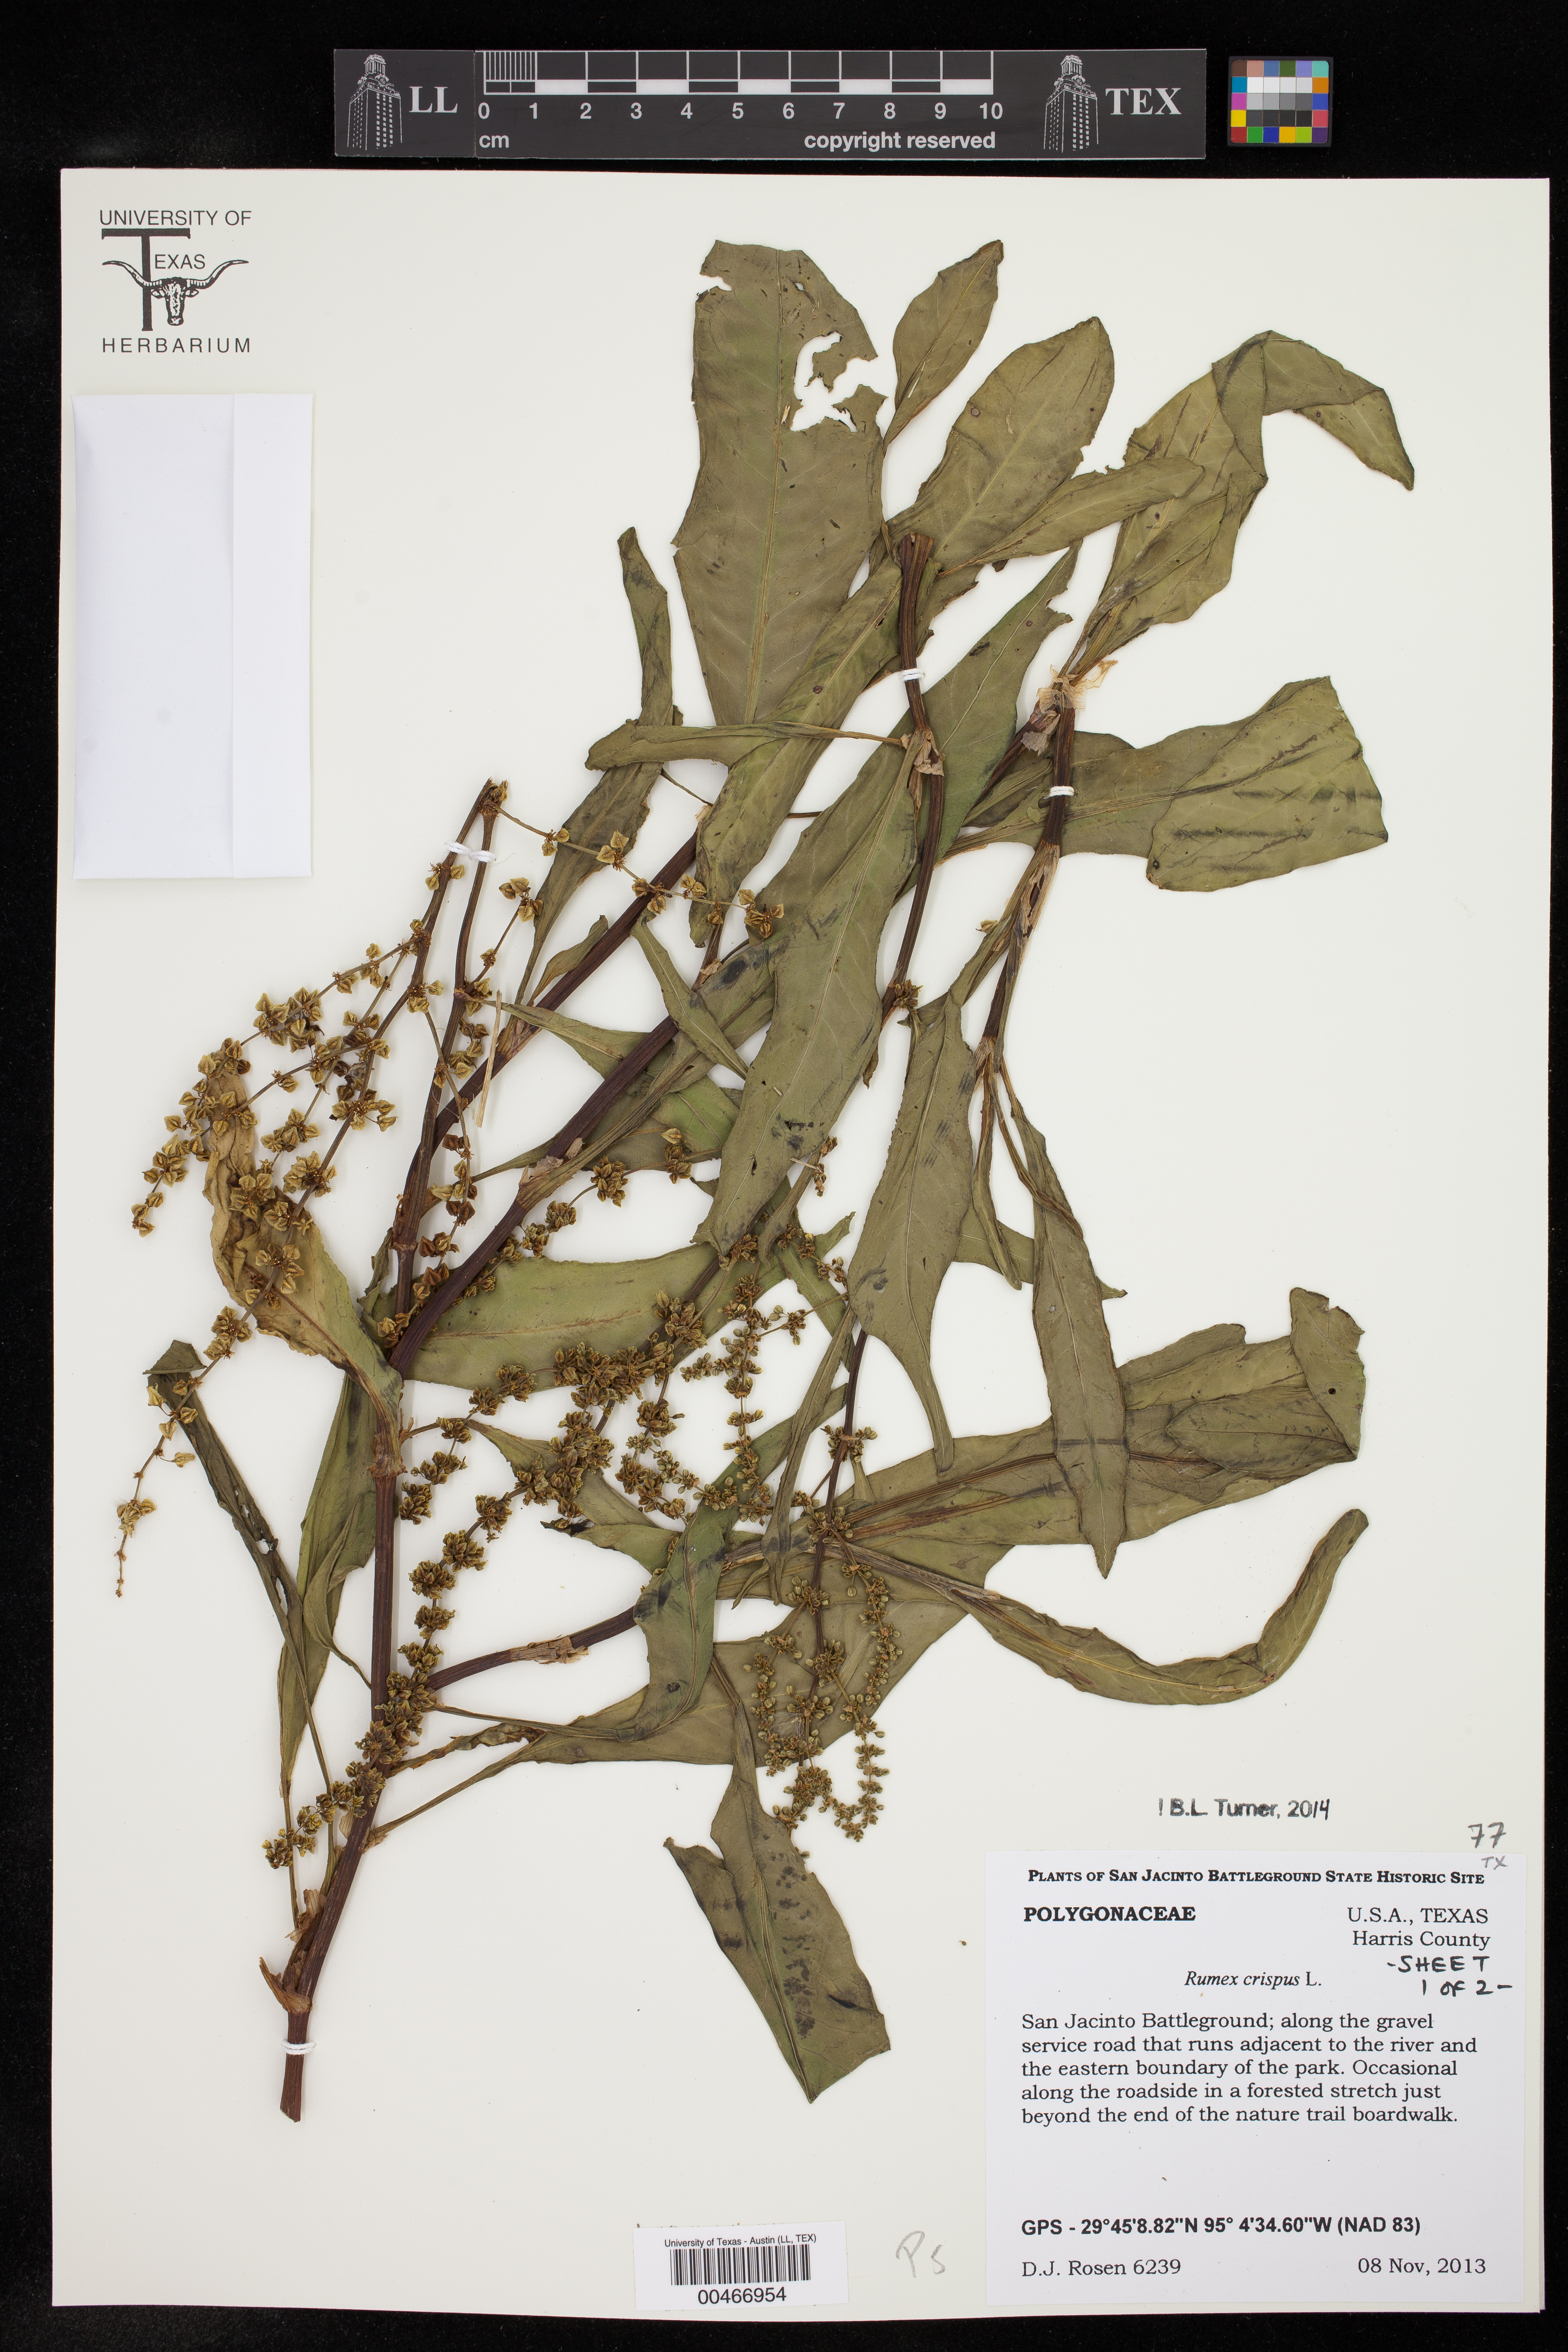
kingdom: Plantae
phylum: Tracheophyta
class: Magnoliopsida
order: Caryophyllales
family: Polygonaceae
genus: Rumex
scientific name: Rumex crispus
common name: Curled dock
